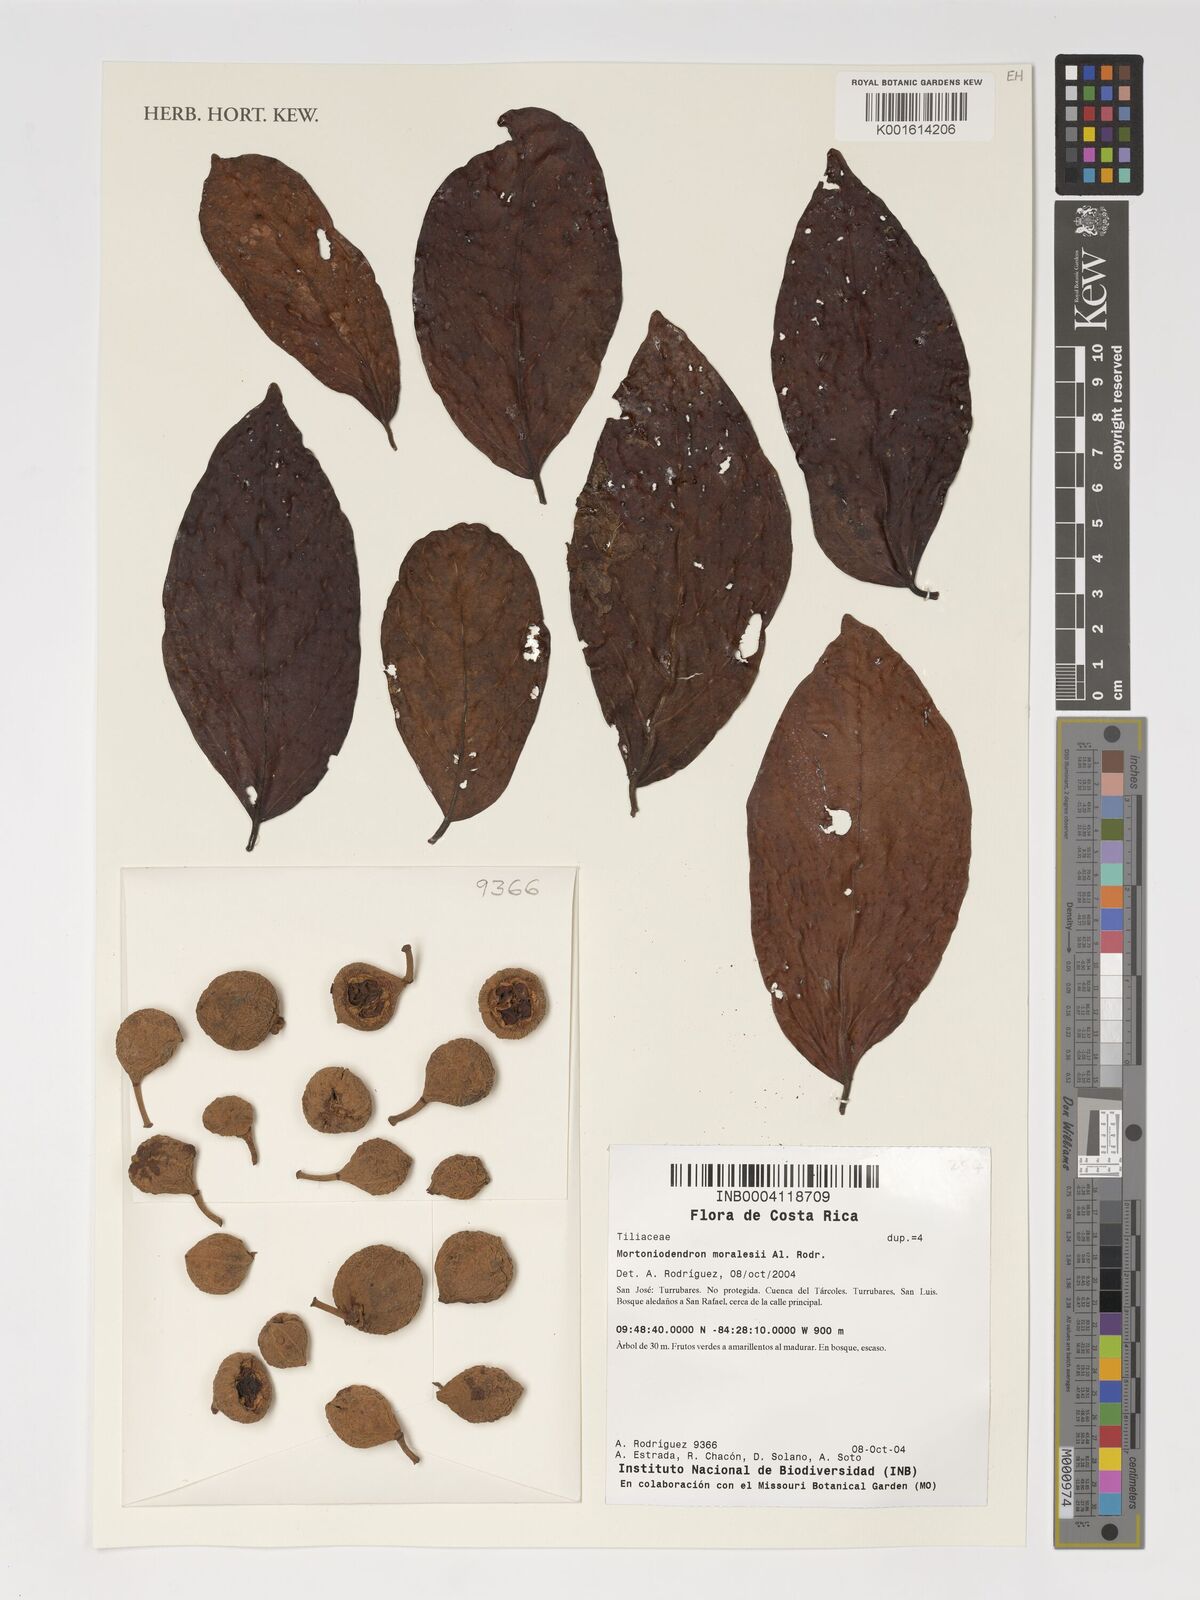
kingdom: Plantae
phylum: Tracheophyta
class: Magnoliopsida
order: Malvales
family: Malvaceae
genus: Mortoniodendron
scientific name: Mortoniodendron anisophyllum
